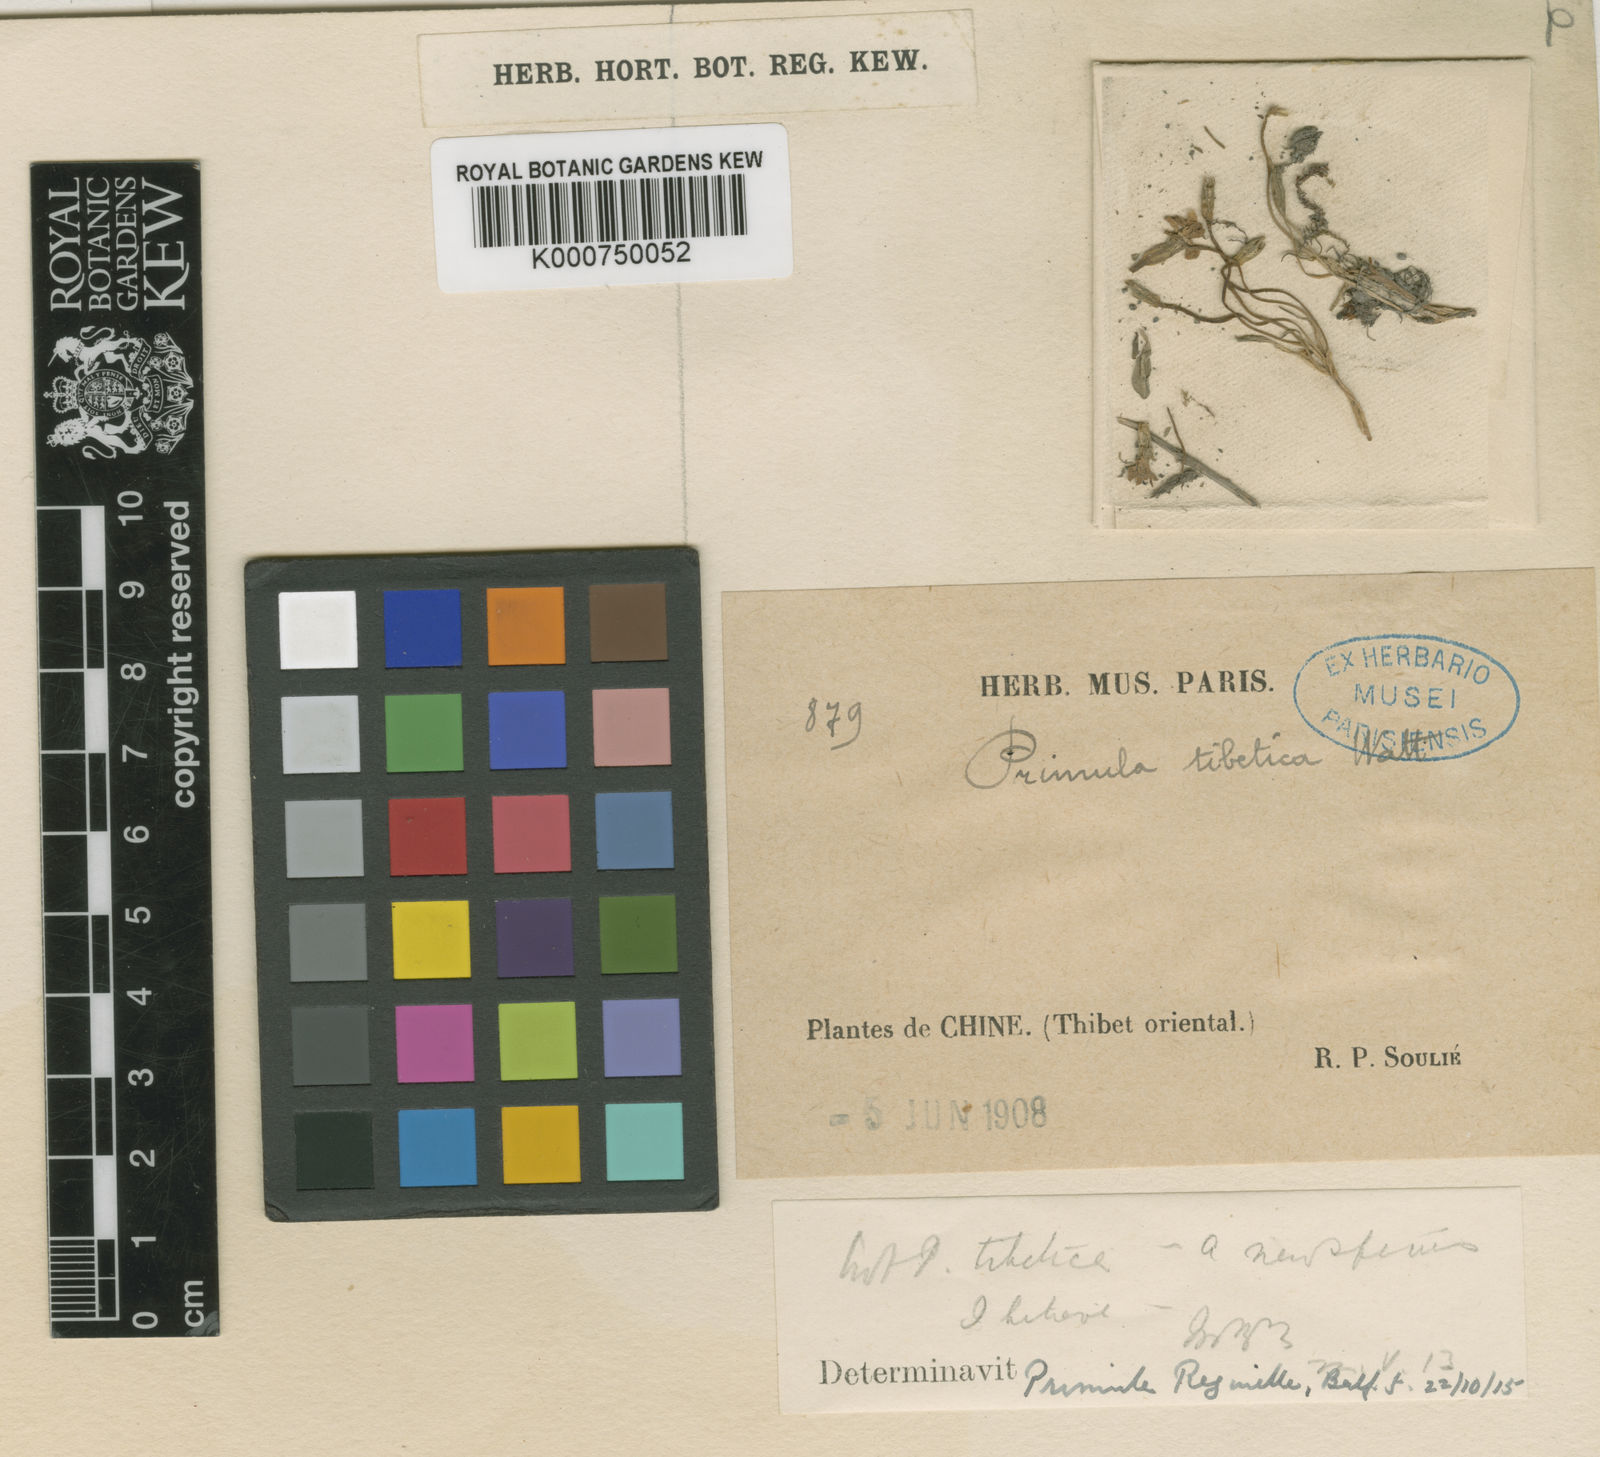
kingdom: Plantae
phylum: Tracheophyta
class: Magnoliopsida
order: Ericales
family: Primulaceae
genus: Primula
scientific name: Primula fasciculata
